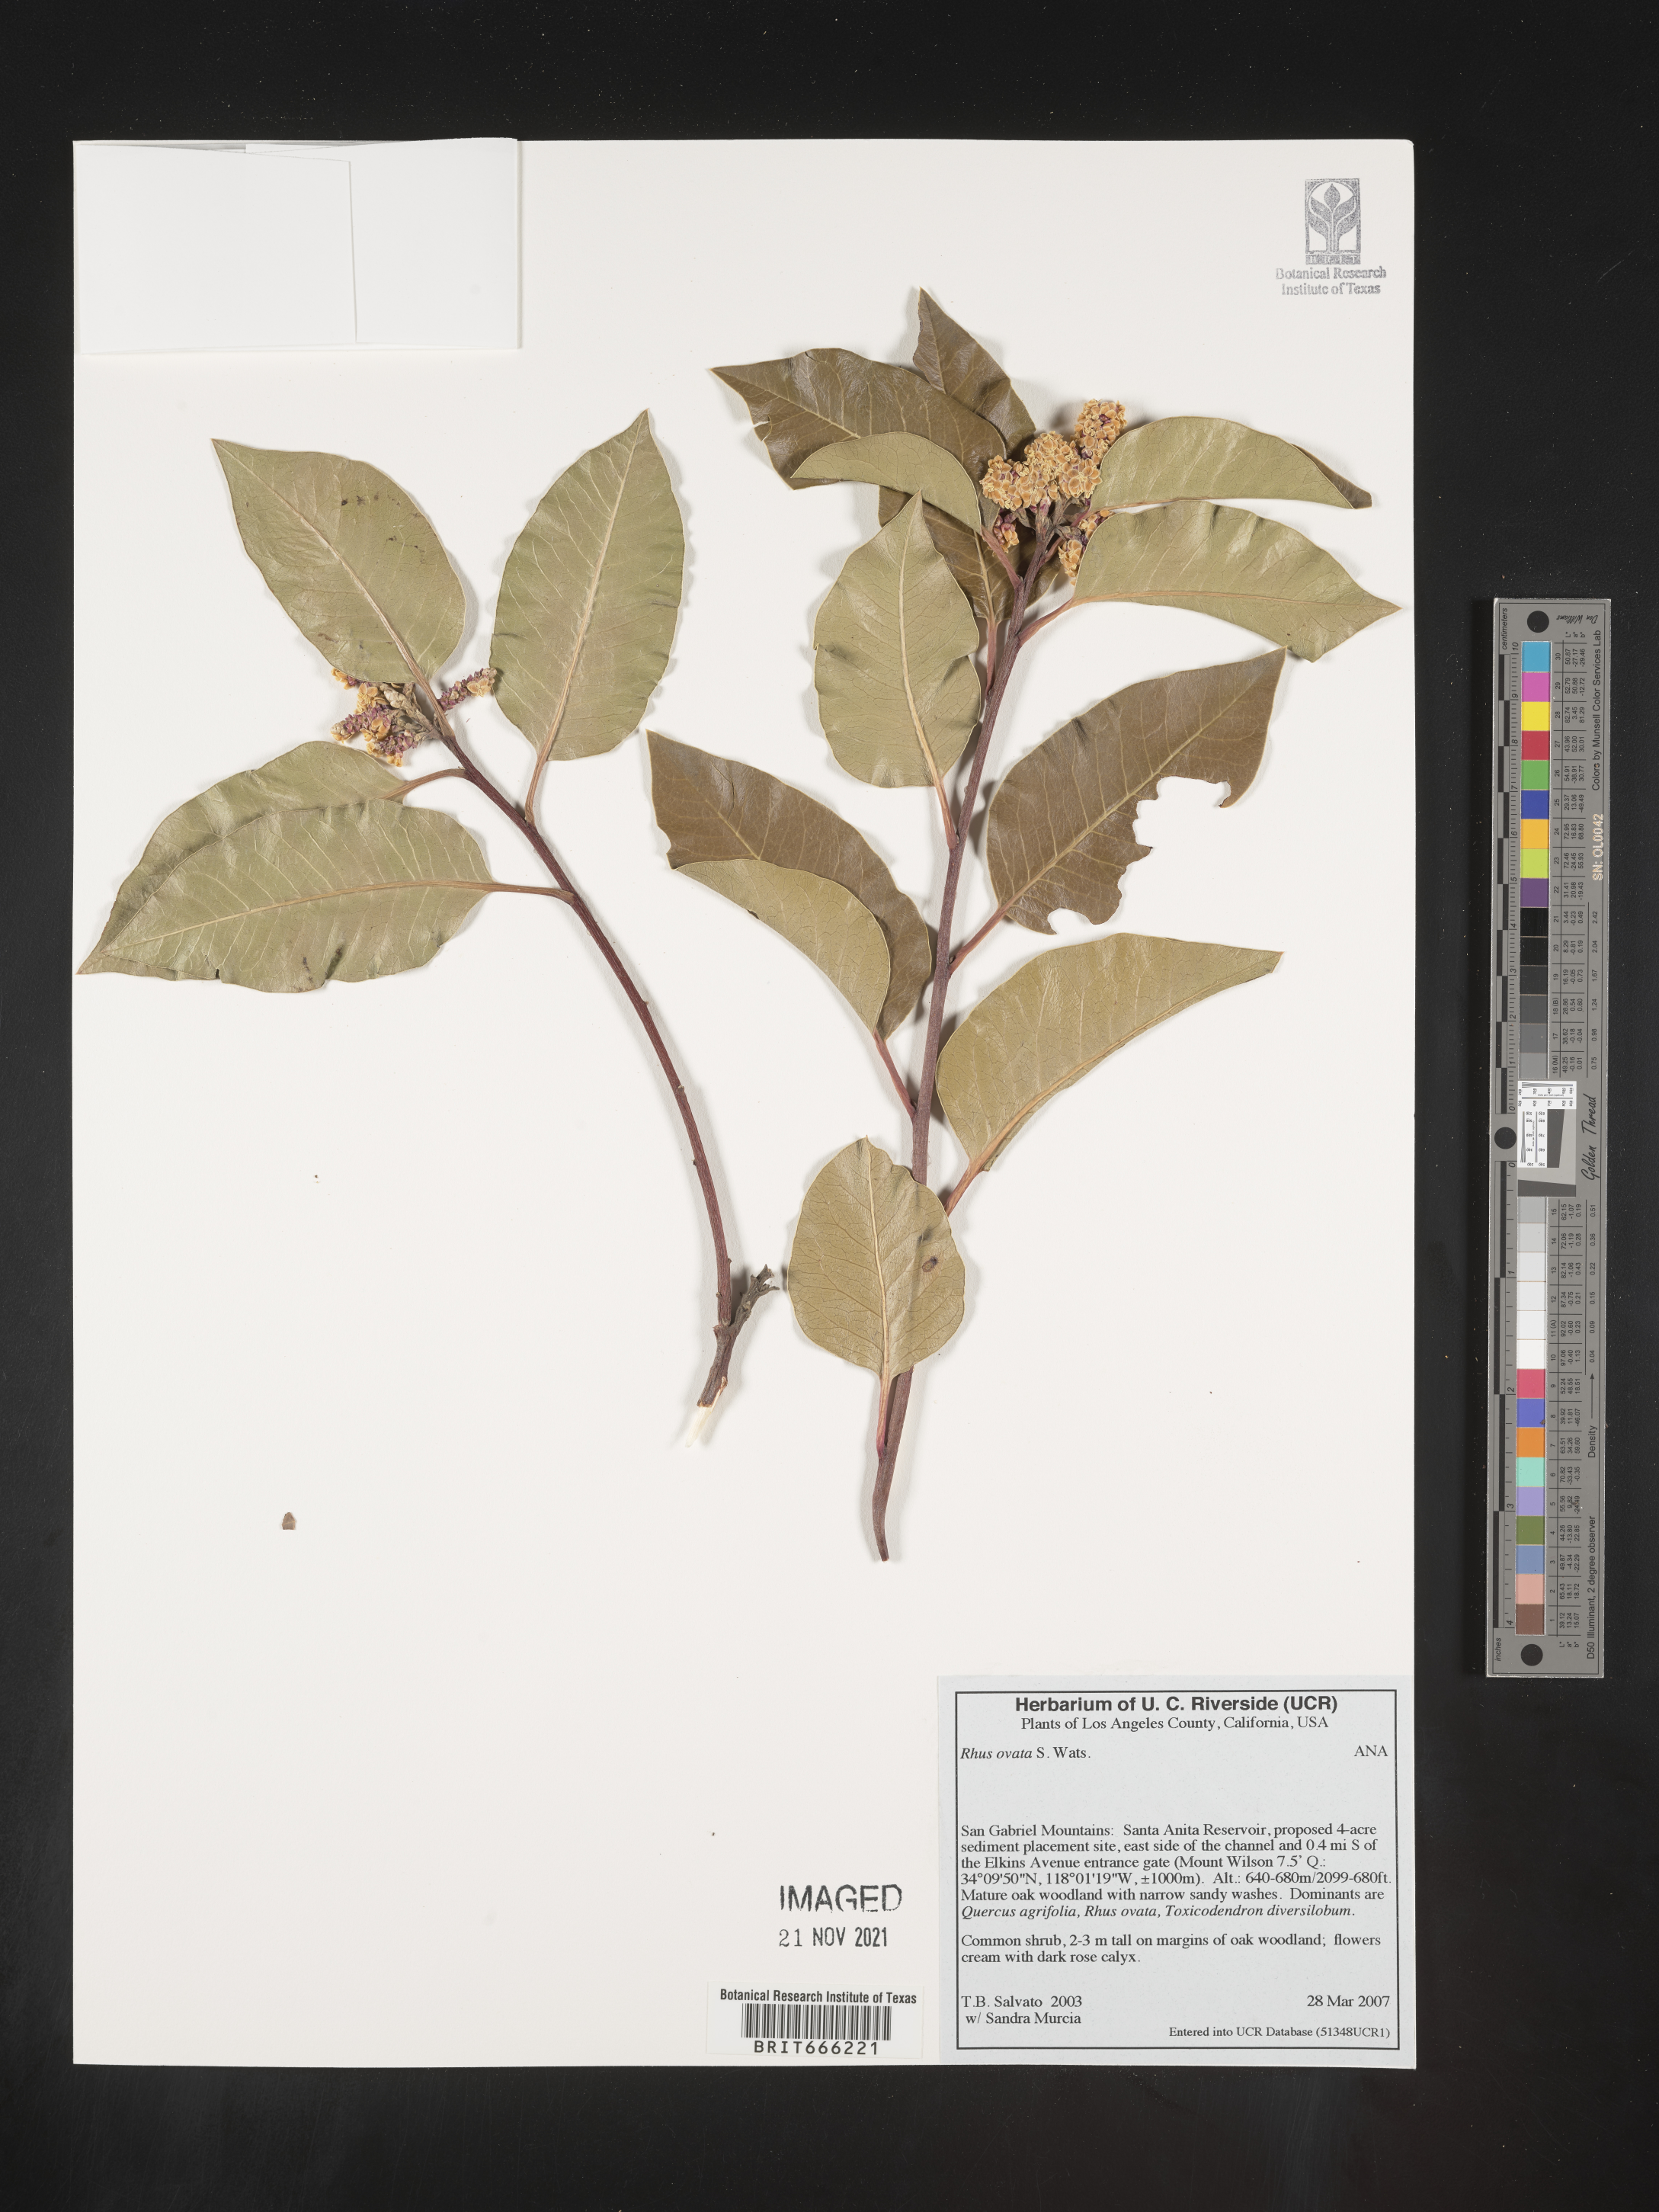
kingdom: Plantae
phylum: Tracheophyta
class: Magnoliopsida
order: Sapindales
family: Anacardiaceae
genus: Rhus
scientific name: Rhus
